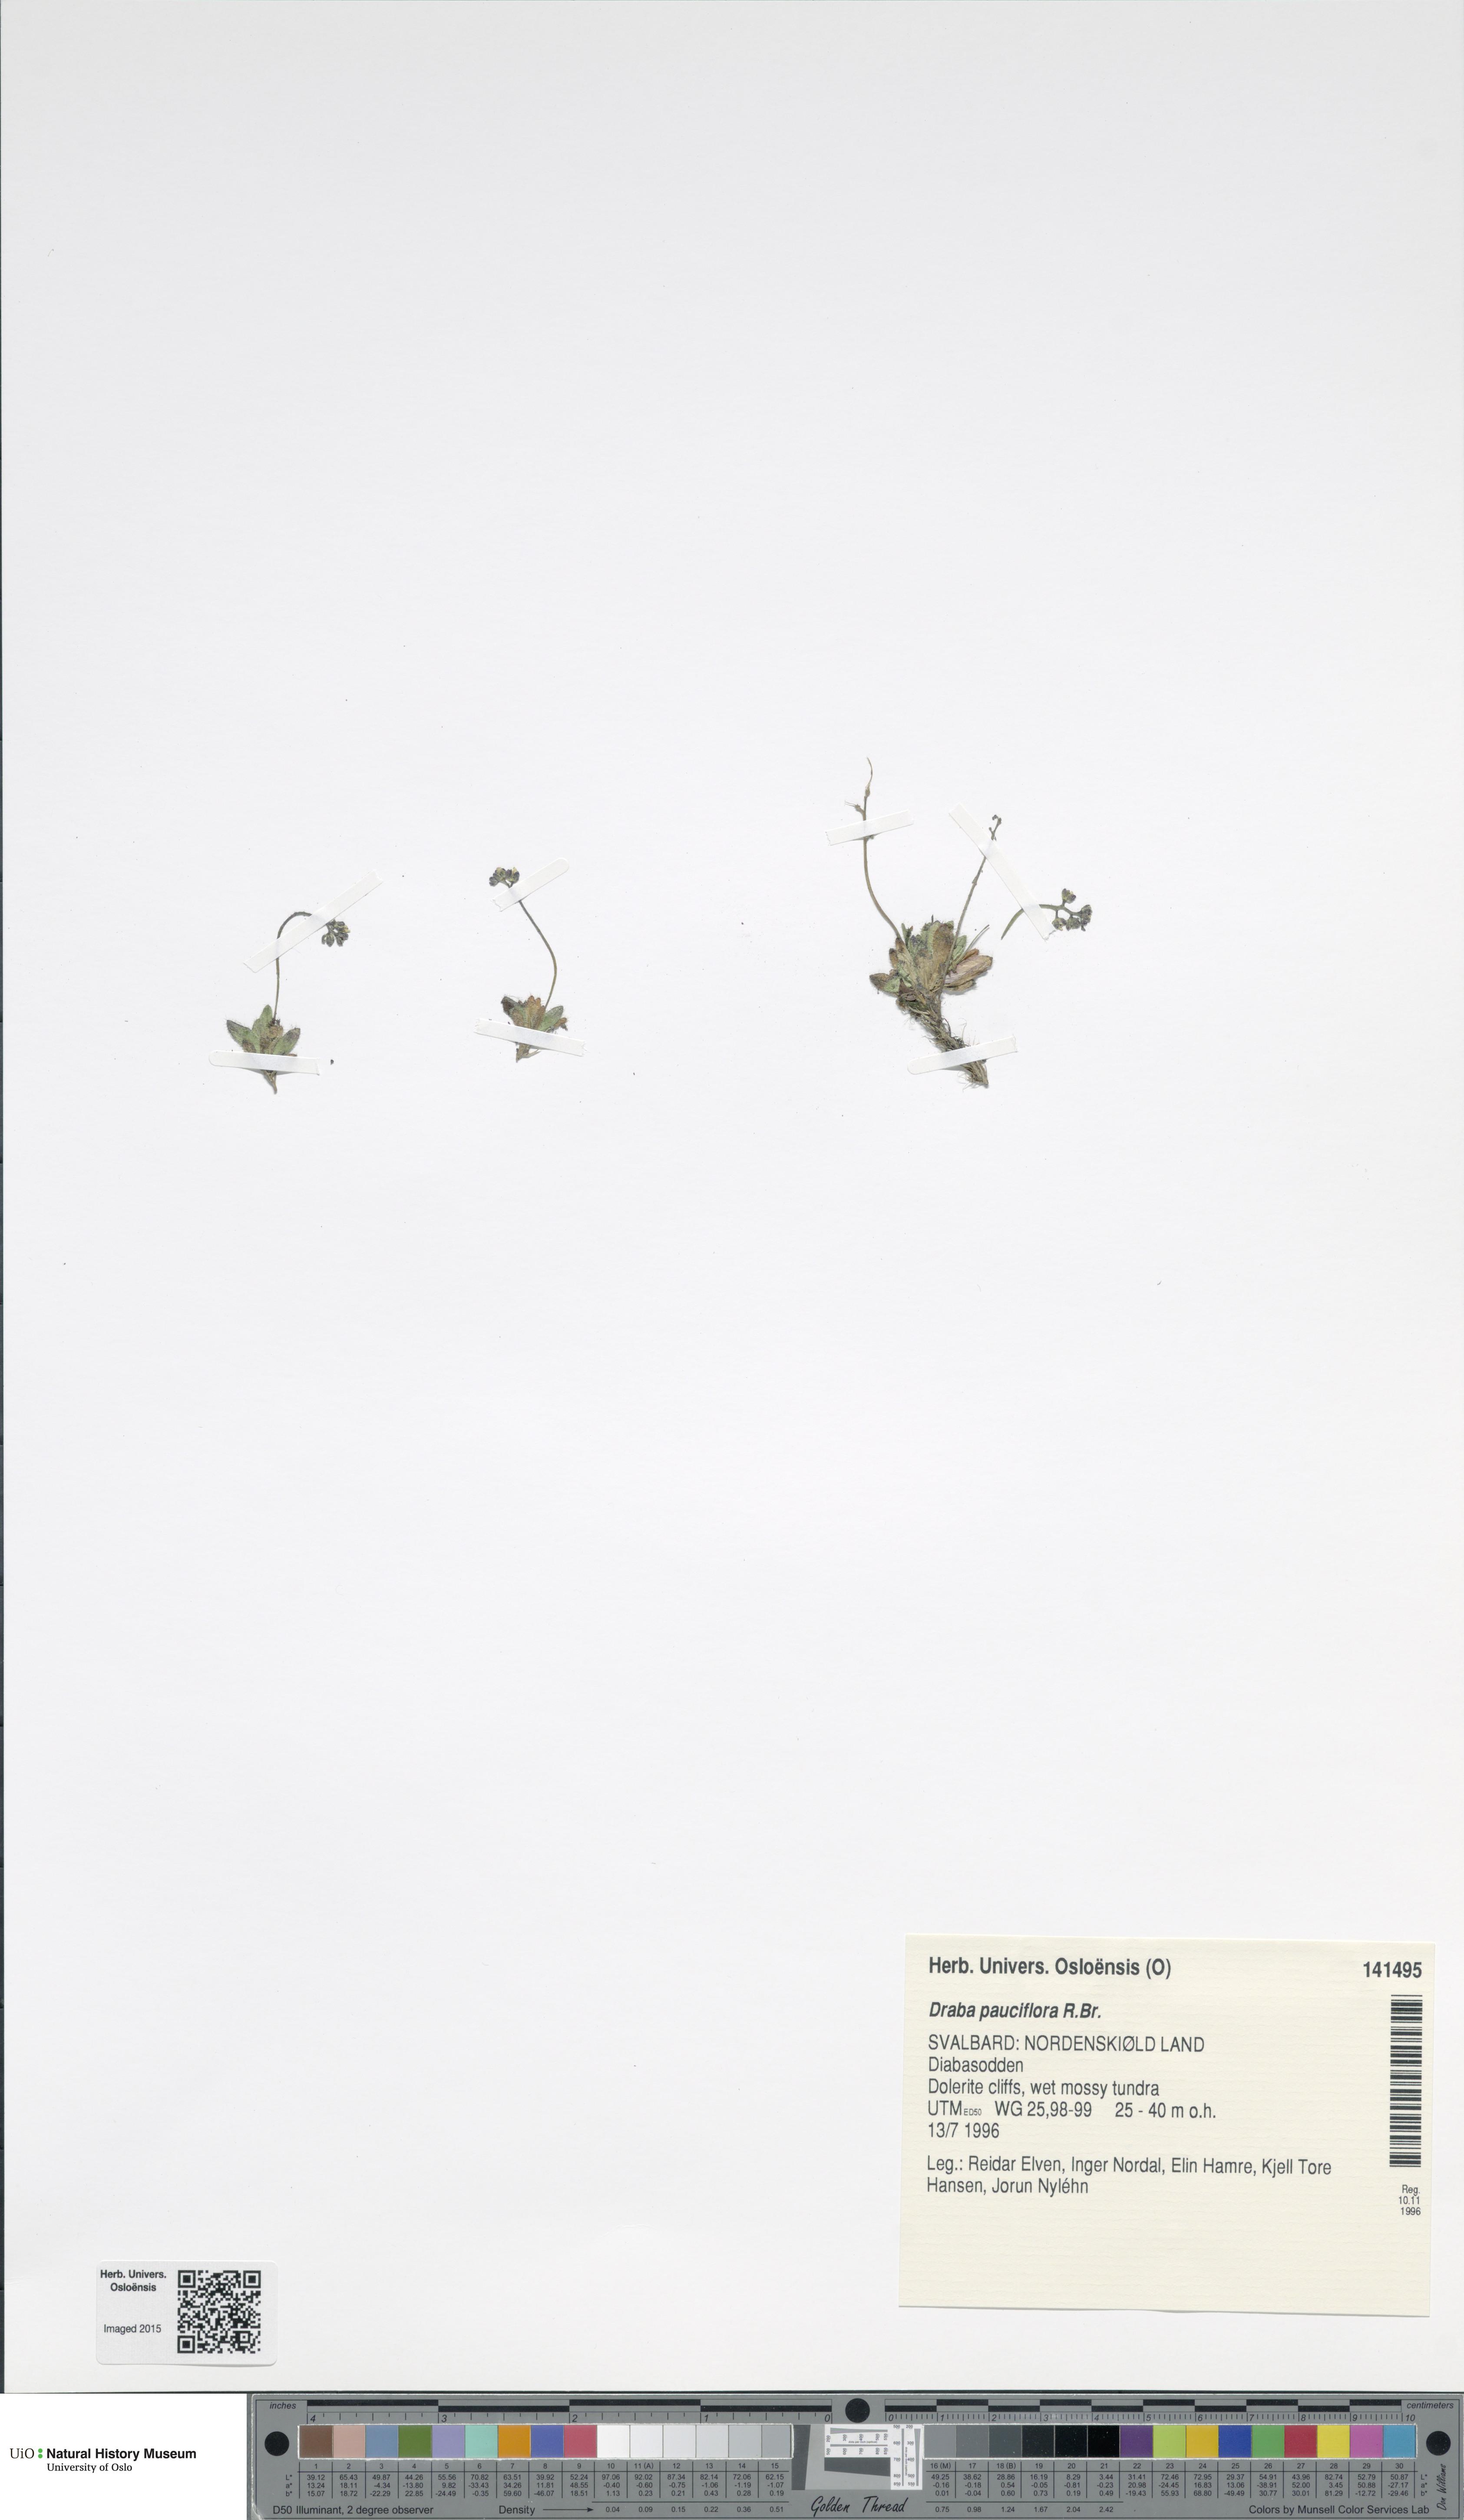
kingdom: Plantae
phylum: Tracheophyta
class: Magnoliopsida
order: Brassicales
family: Brassicaceae
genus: Draba
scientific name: Draba pauciflora
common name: Few-flowered draba
